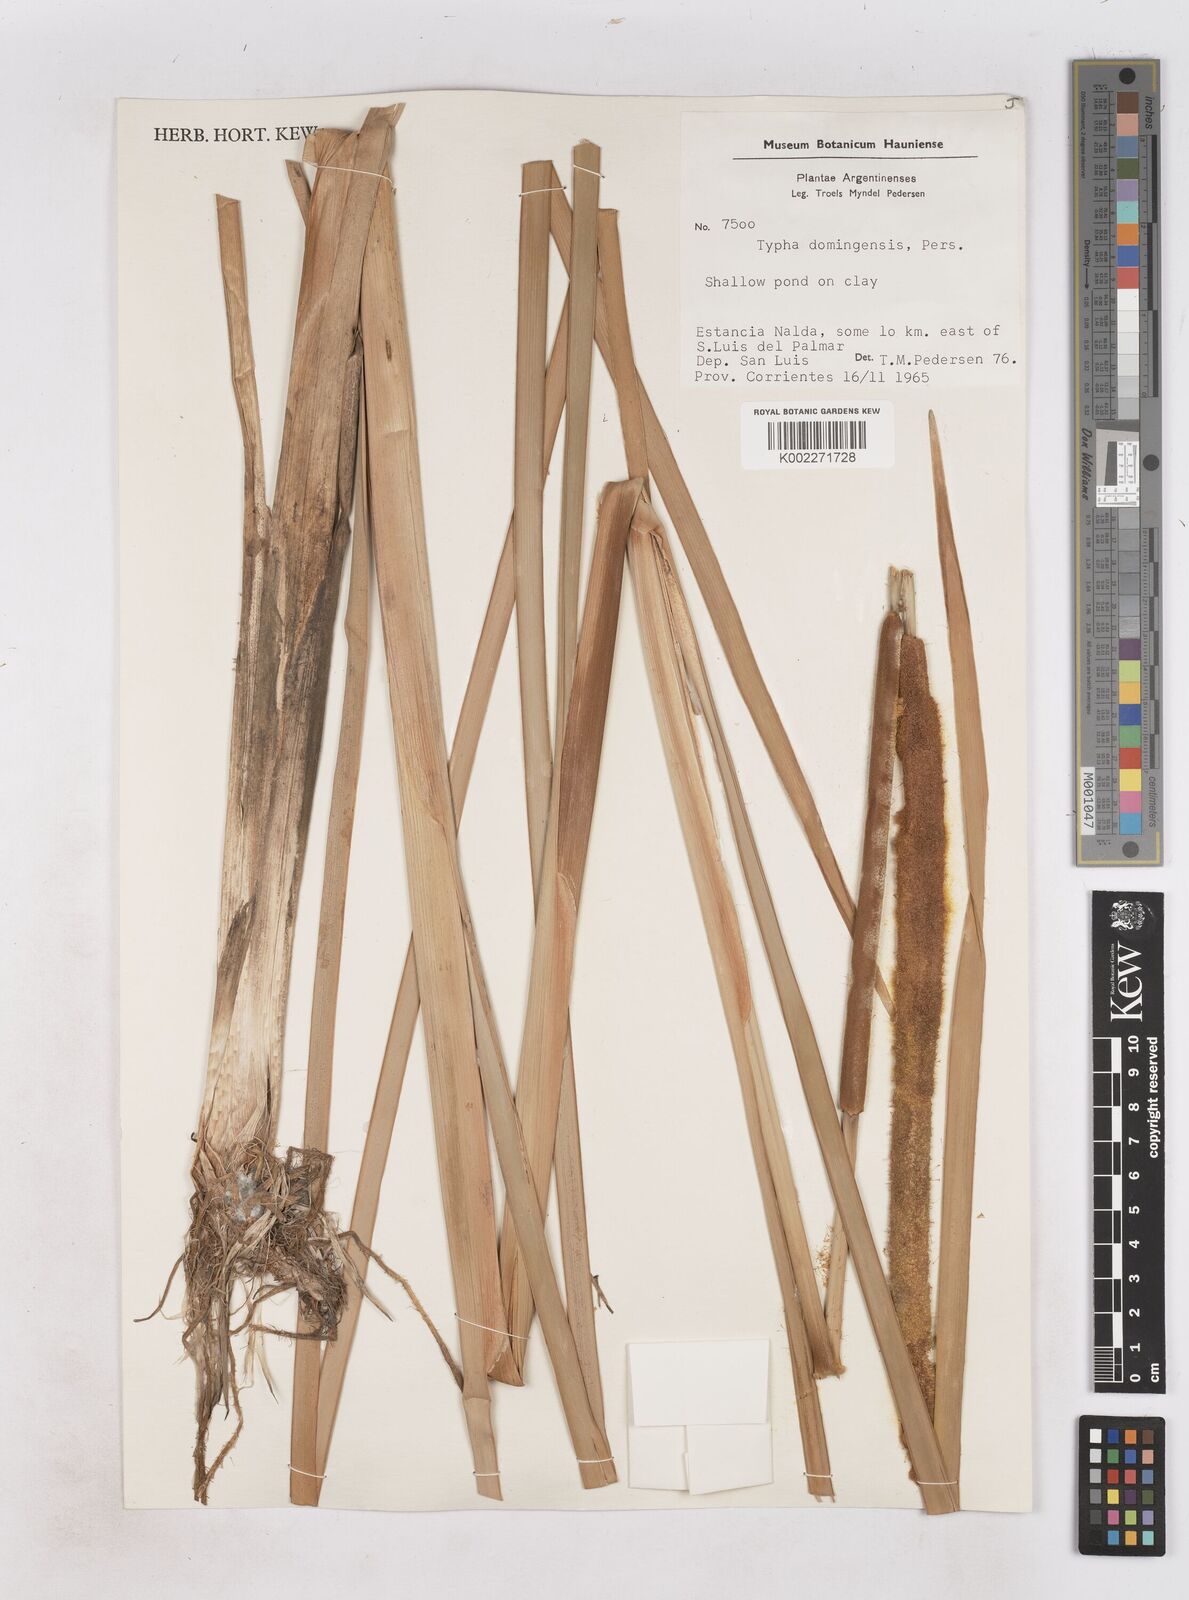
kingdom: Plantae
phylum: Tracheophyta
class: Liliopsida
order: Poales
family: Typhaceae
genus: Typha
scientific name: Typha domingensis
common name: Southern cattail
